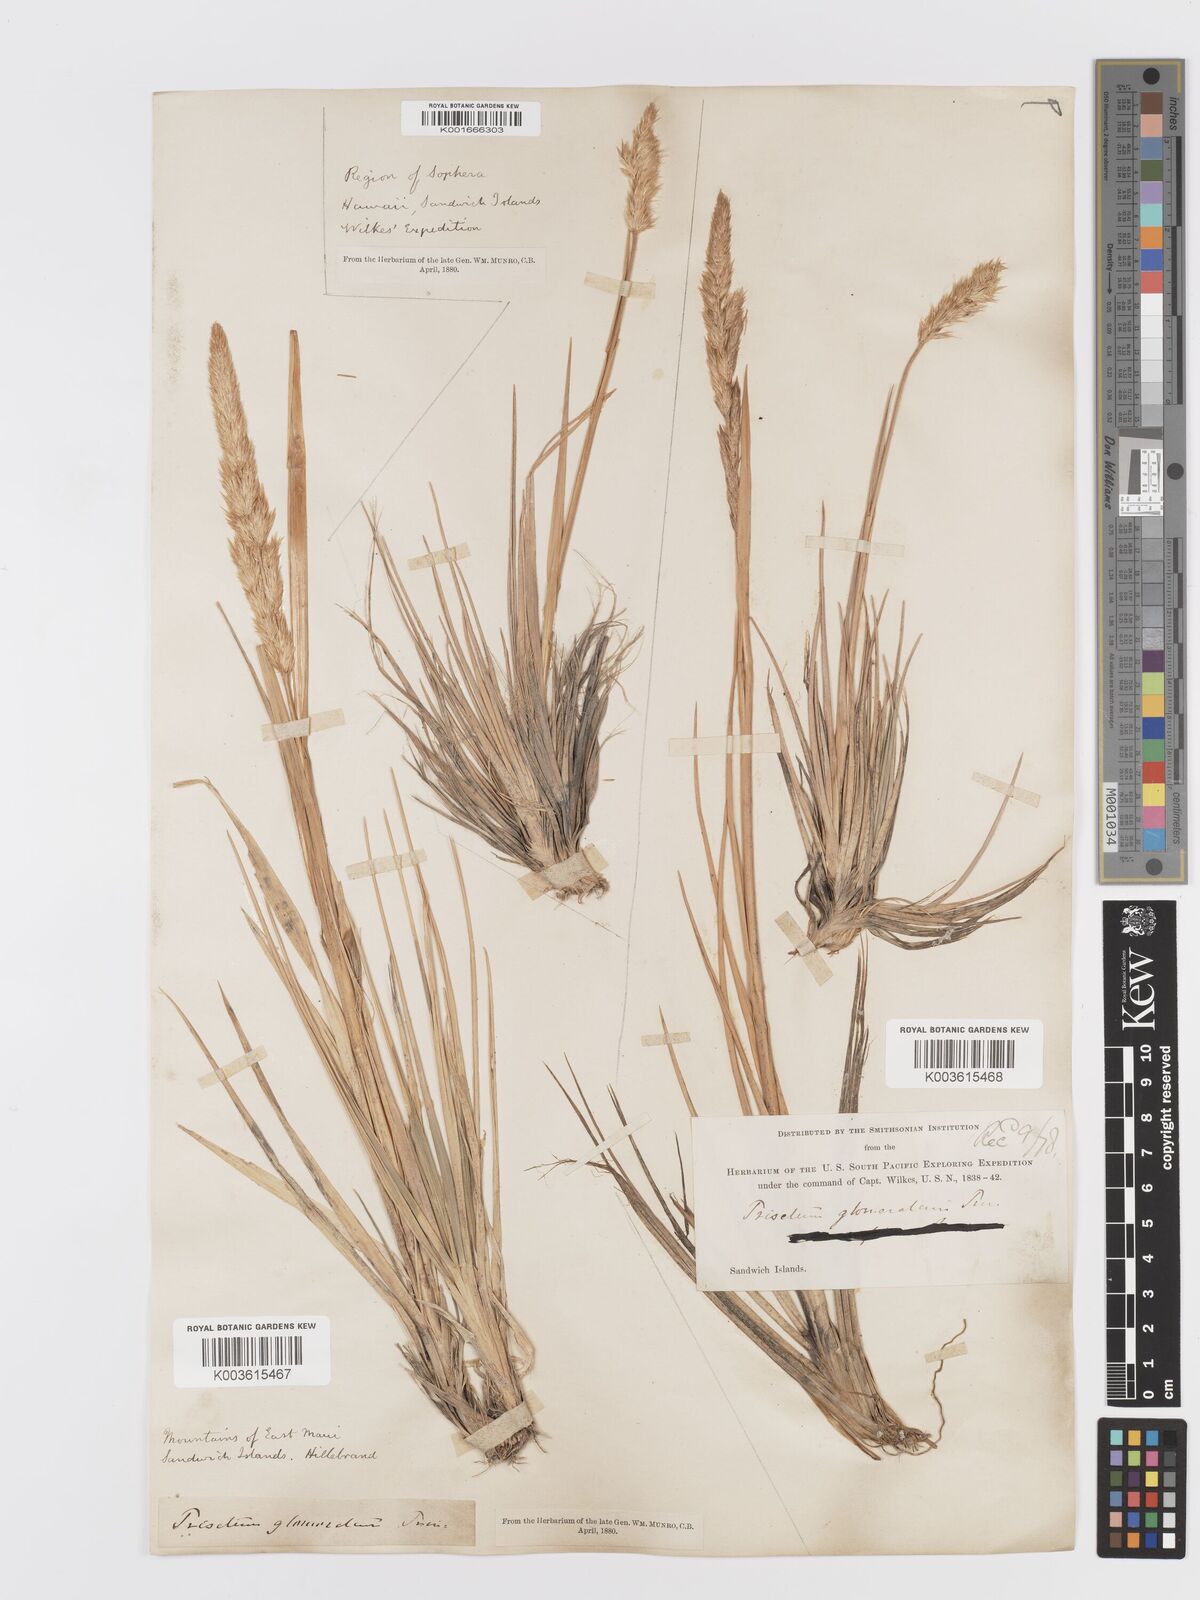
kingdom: Plantae
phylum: Tracheophyta
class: Liliopsida
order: Poales
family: Poaceae
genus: Trisetum
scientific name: Trisetum glomeratum
